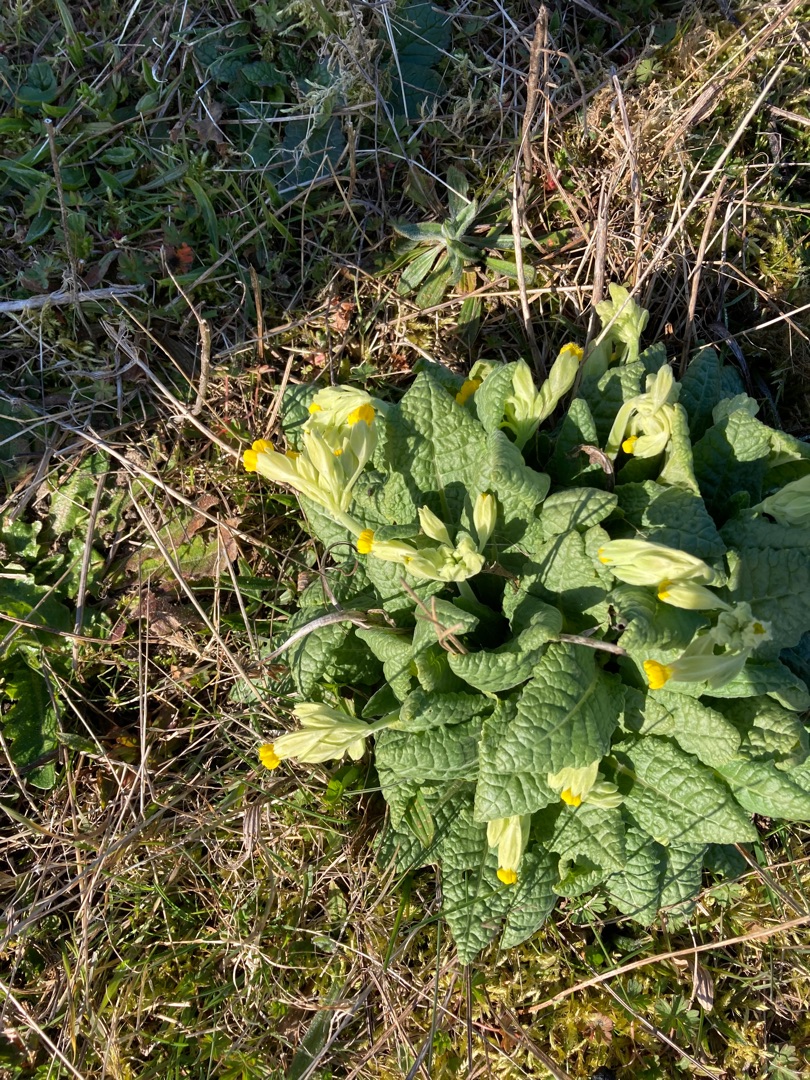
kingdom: Plantae
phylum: Tracheophyta
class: Magnoliopsida
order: Ericales
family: Primulaceae
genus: Primula
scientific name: Primula veris
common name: Hulkravet kodriver
